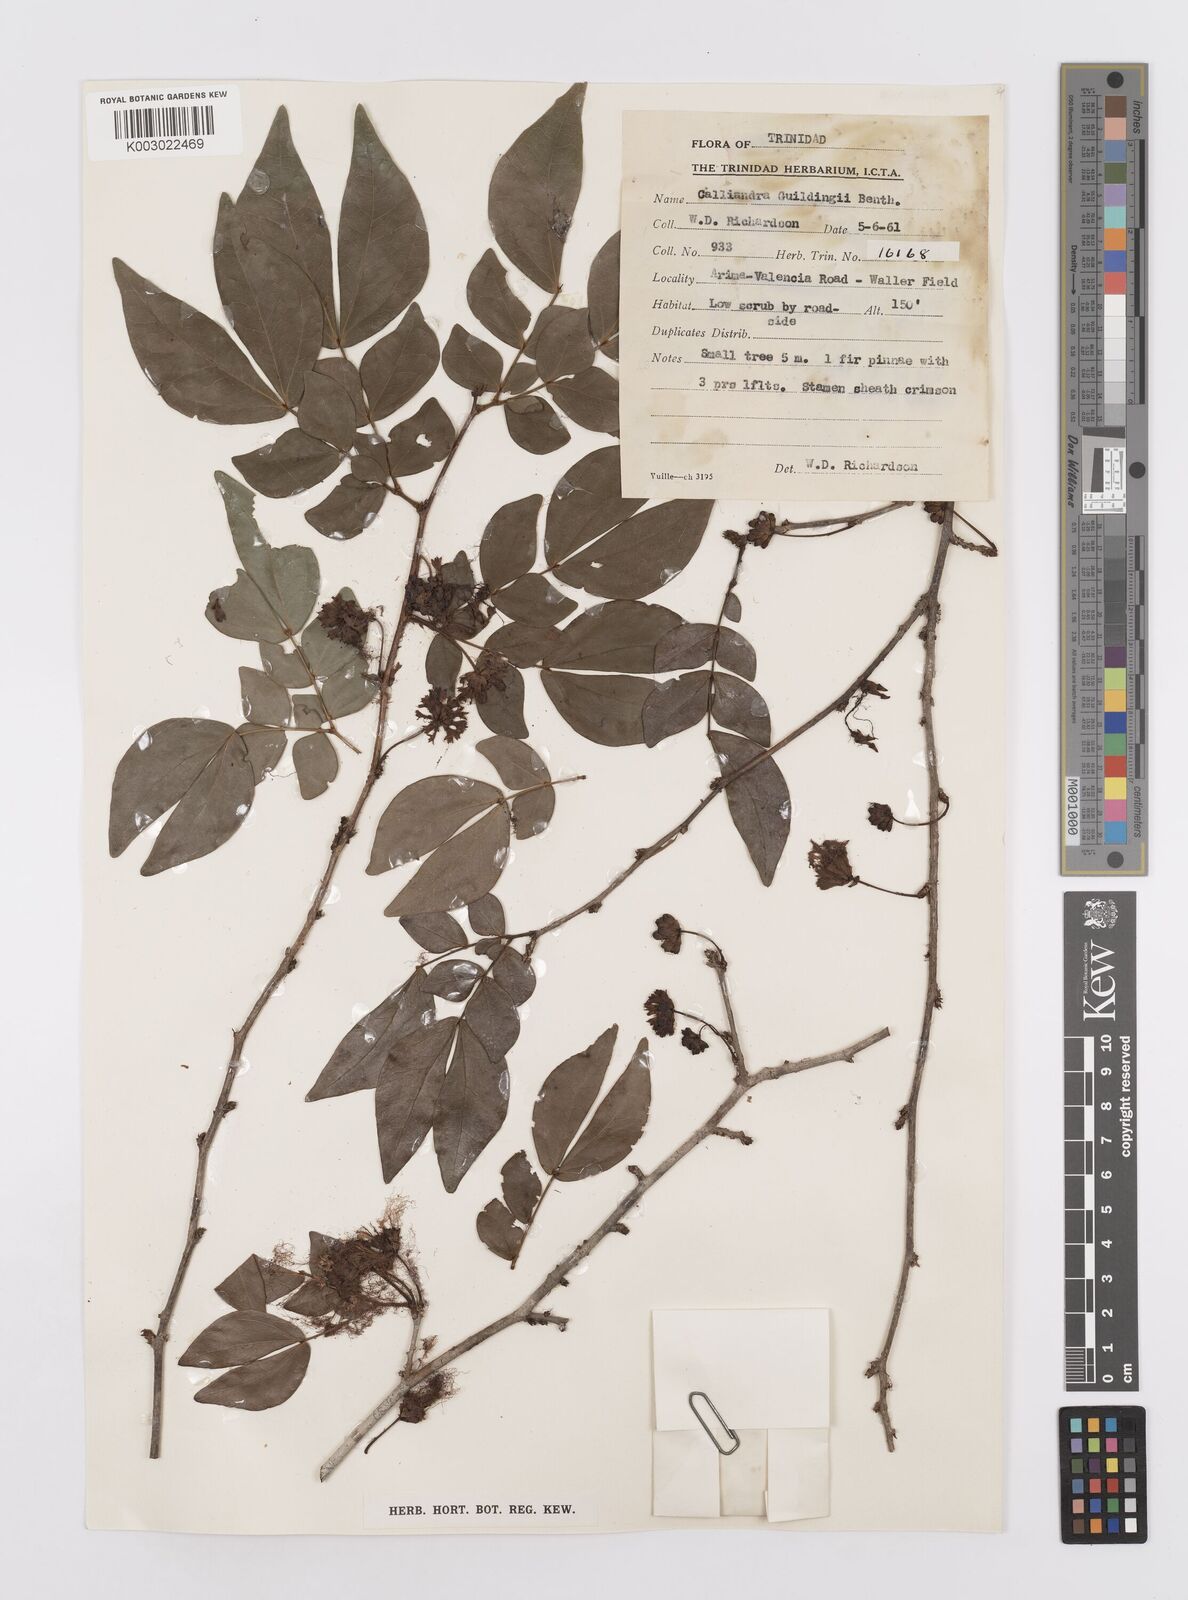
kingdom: Plantae
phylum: Tracheophyta
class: Magnoliopsida
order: Fabales
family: Fabaceae
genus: Calliandra
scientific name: Calliandra guildingii
